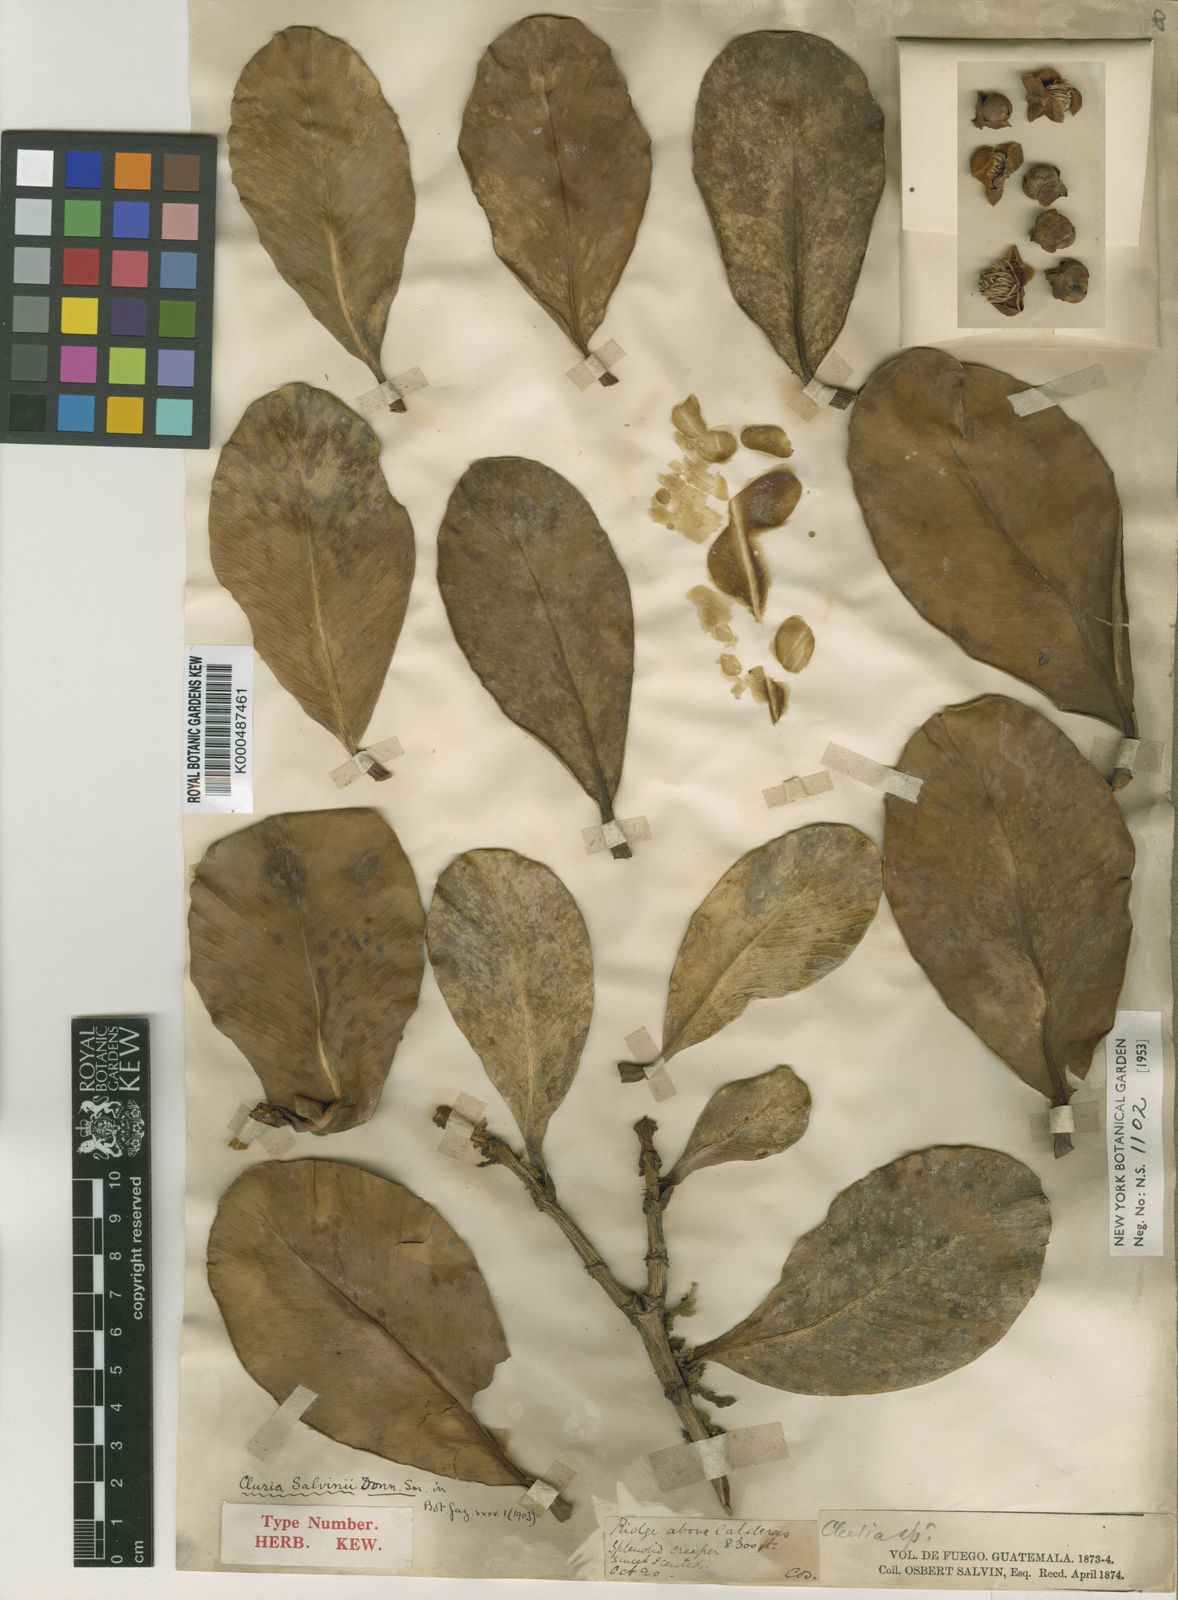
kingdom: Plantae
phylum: Tracheophyta
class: Magnoliopsida
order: Malpighiales
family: Clusiaceae
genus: Clusia
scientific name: Clusia salvinii
